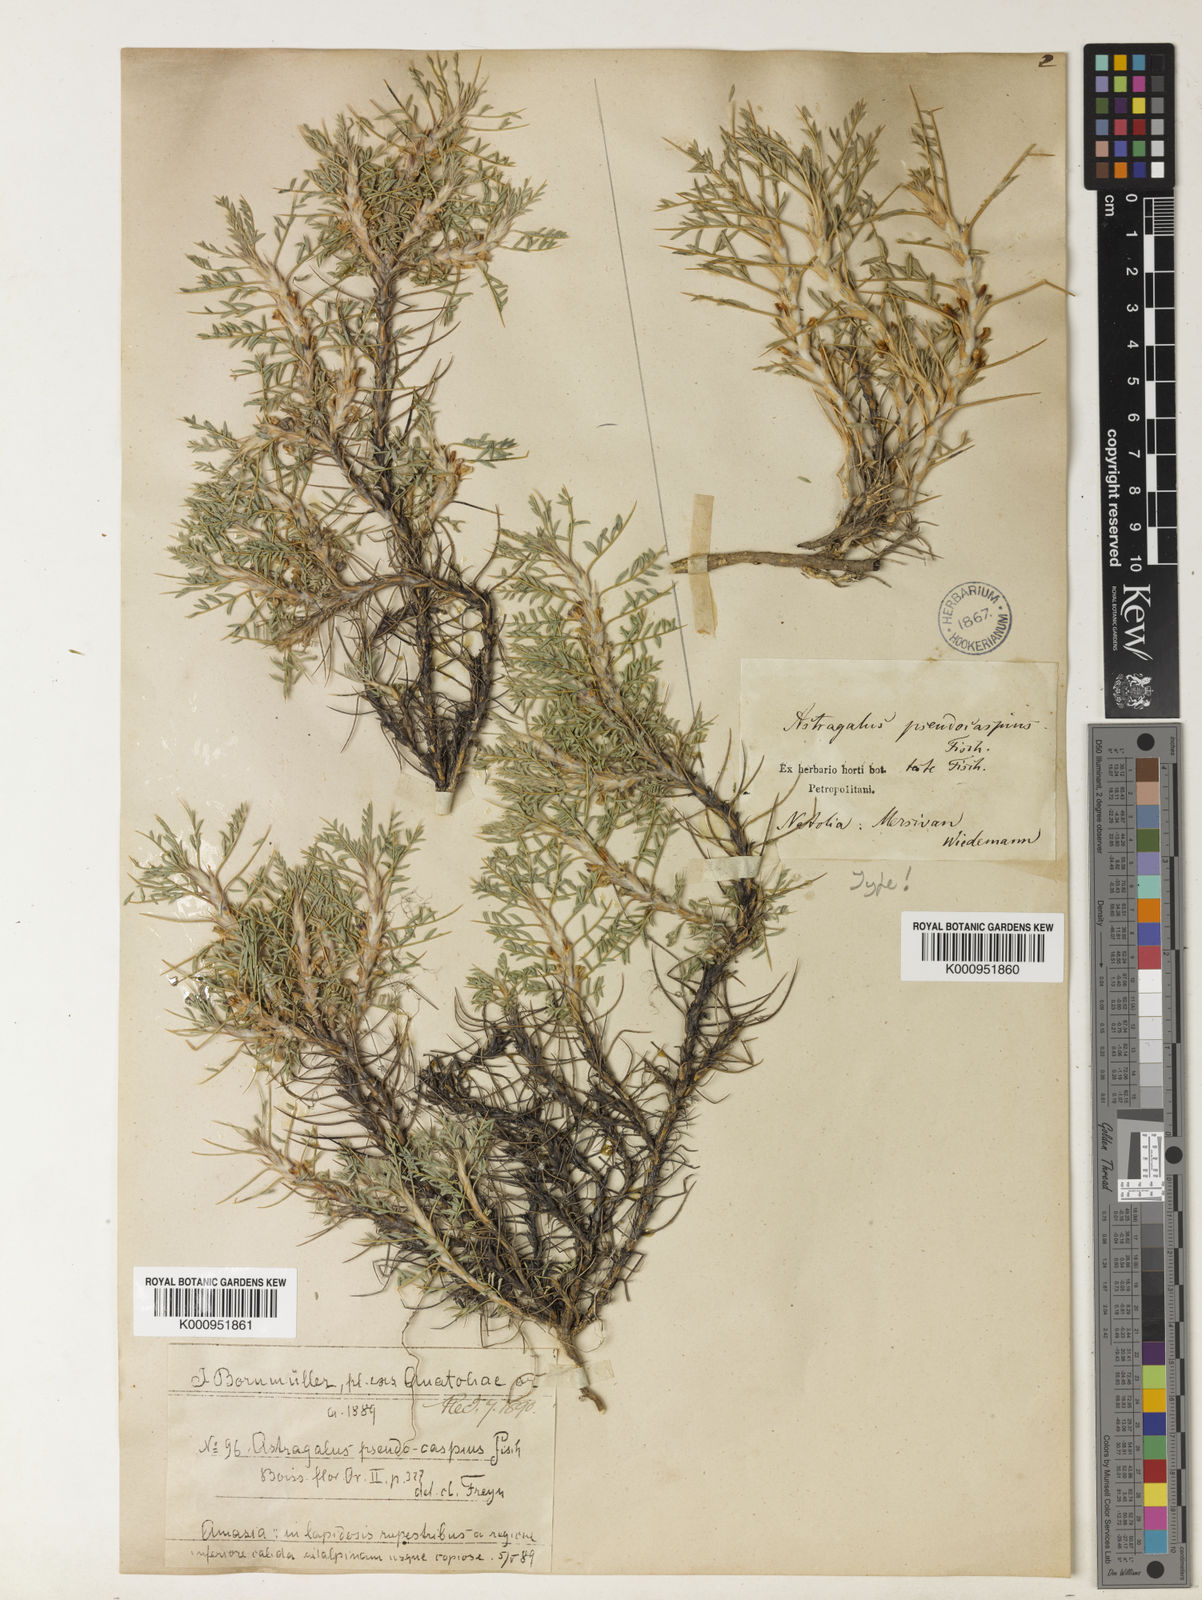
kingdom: Plantae
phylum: Tracheophyta
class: Magnoliopsida
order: Fabales
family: Fabaceae
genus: Astragalus
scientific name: Astragalus caspicus
